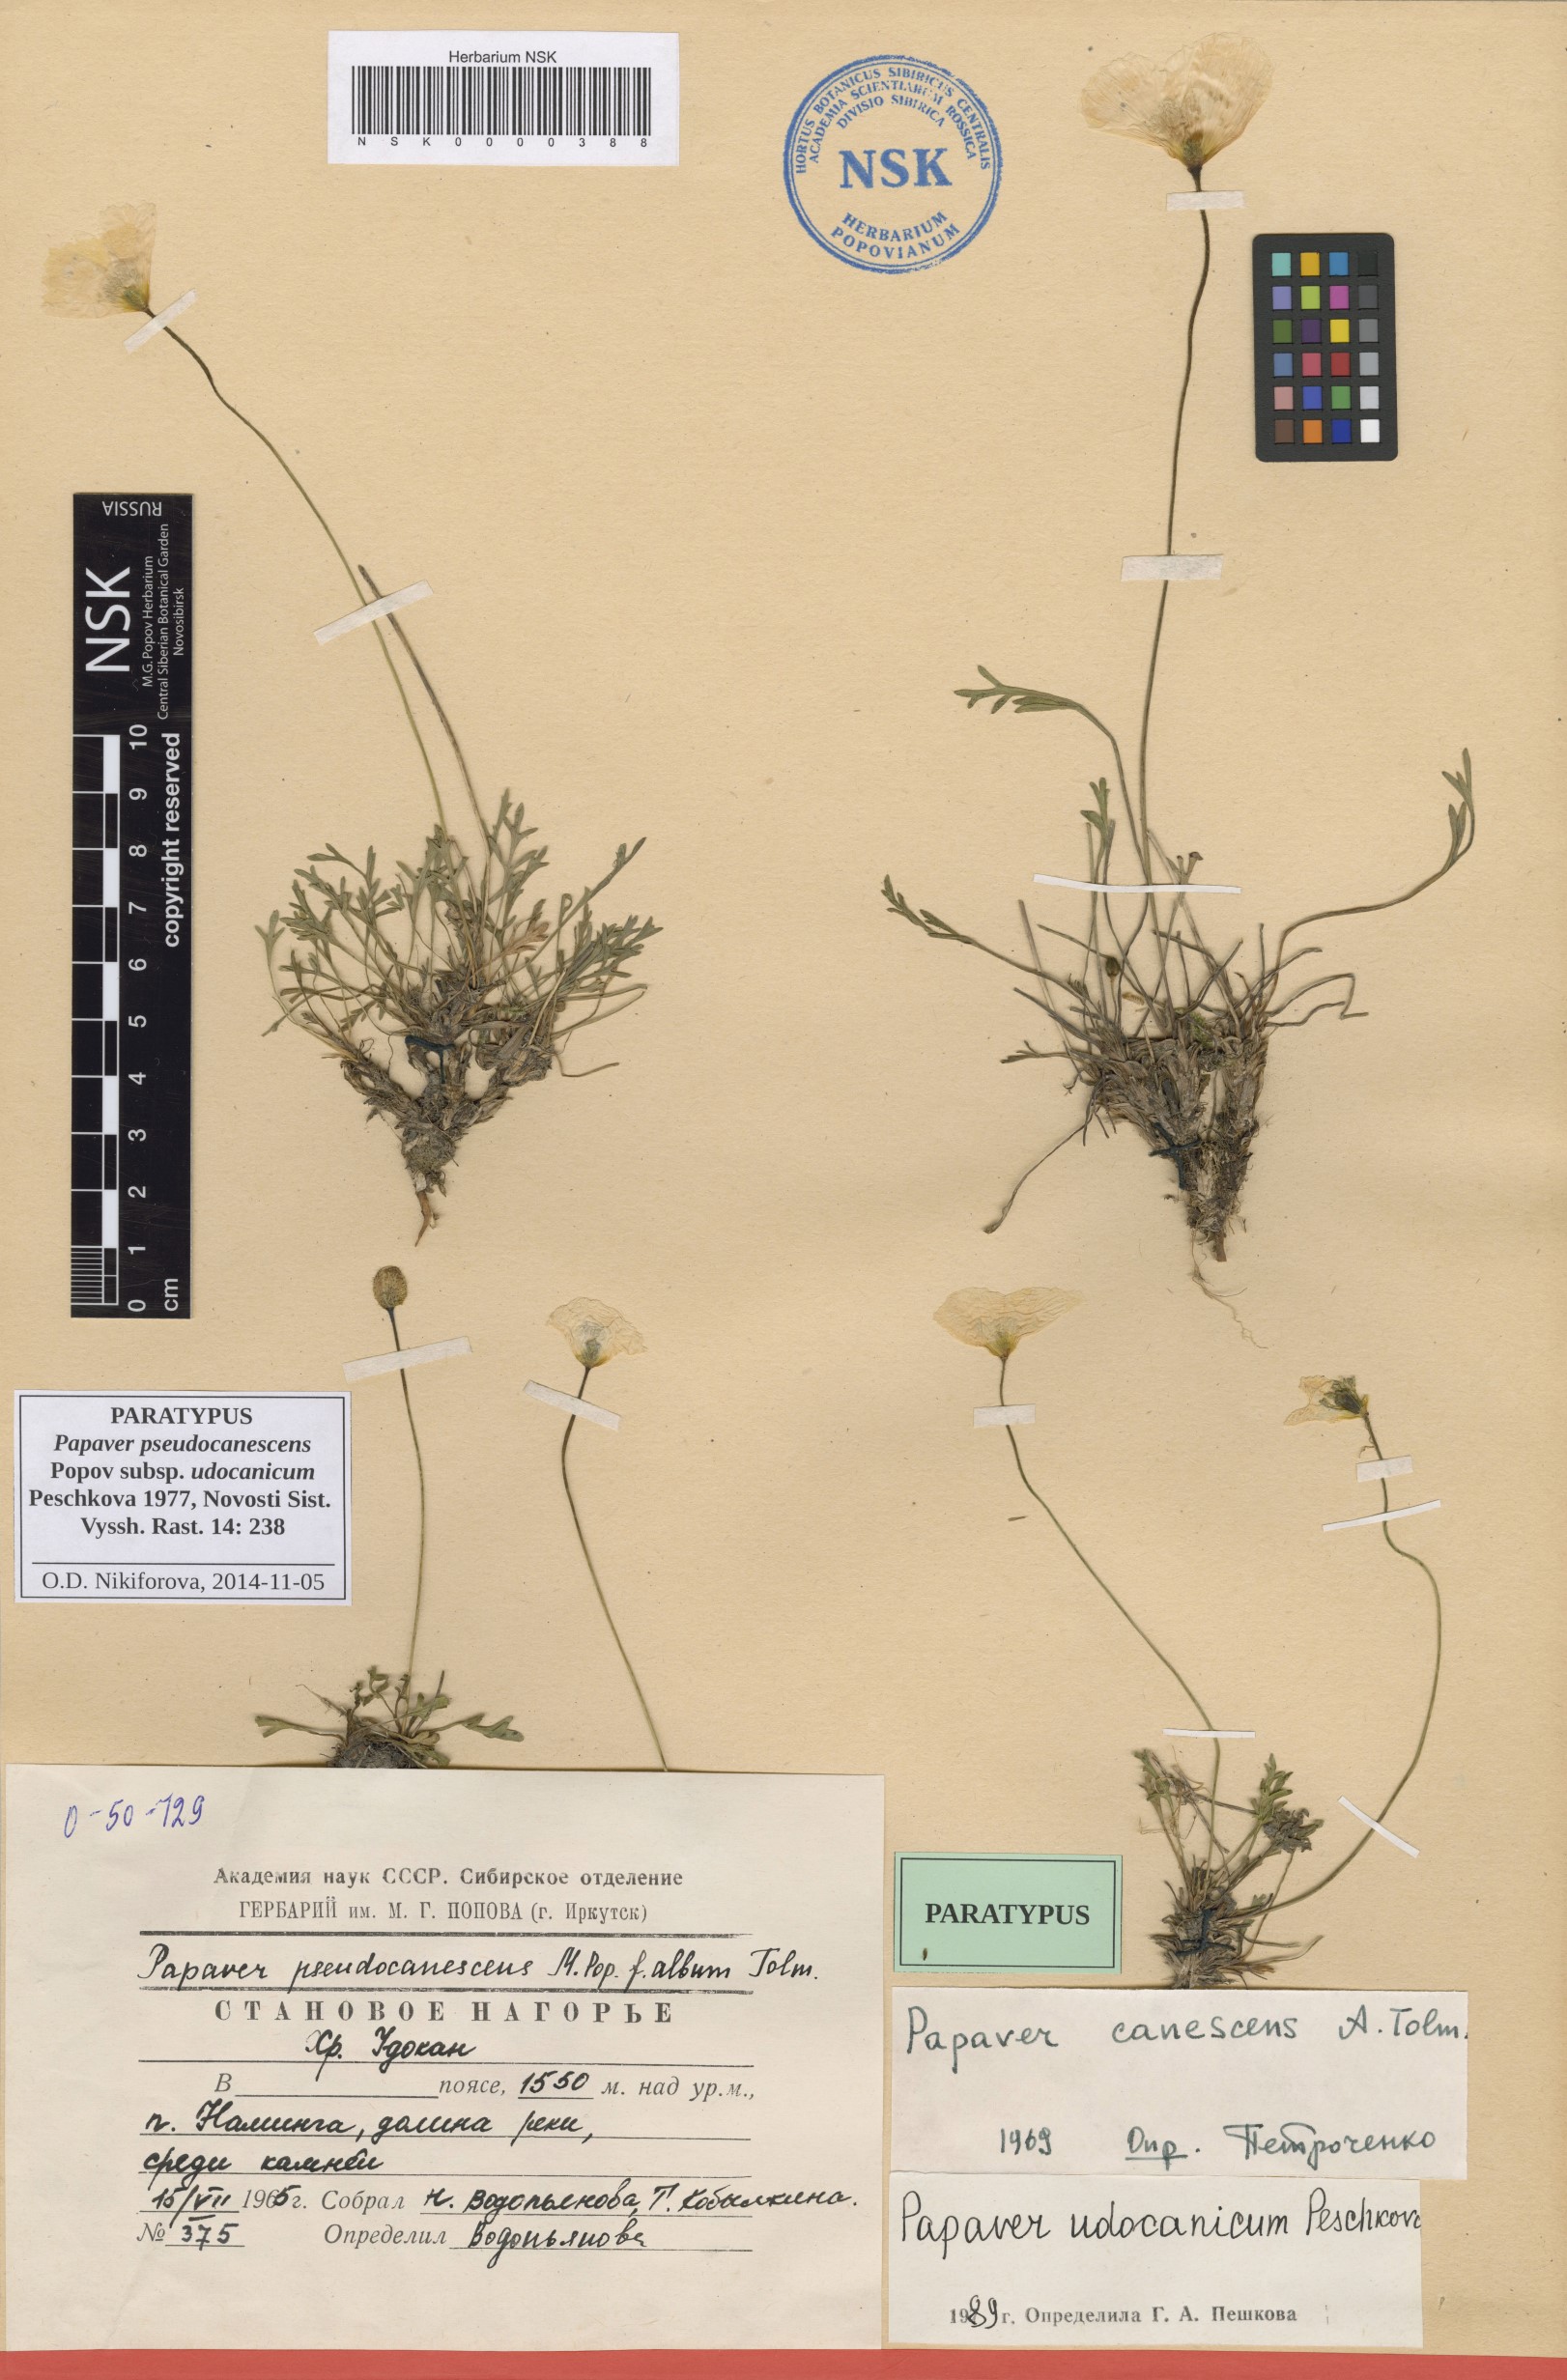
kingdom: Plantae
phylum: Tracheophyta
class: Magnoliopsida
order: Ranunculales
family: Papaveraceae
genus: Papaver
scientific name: Papaver udocanicum
